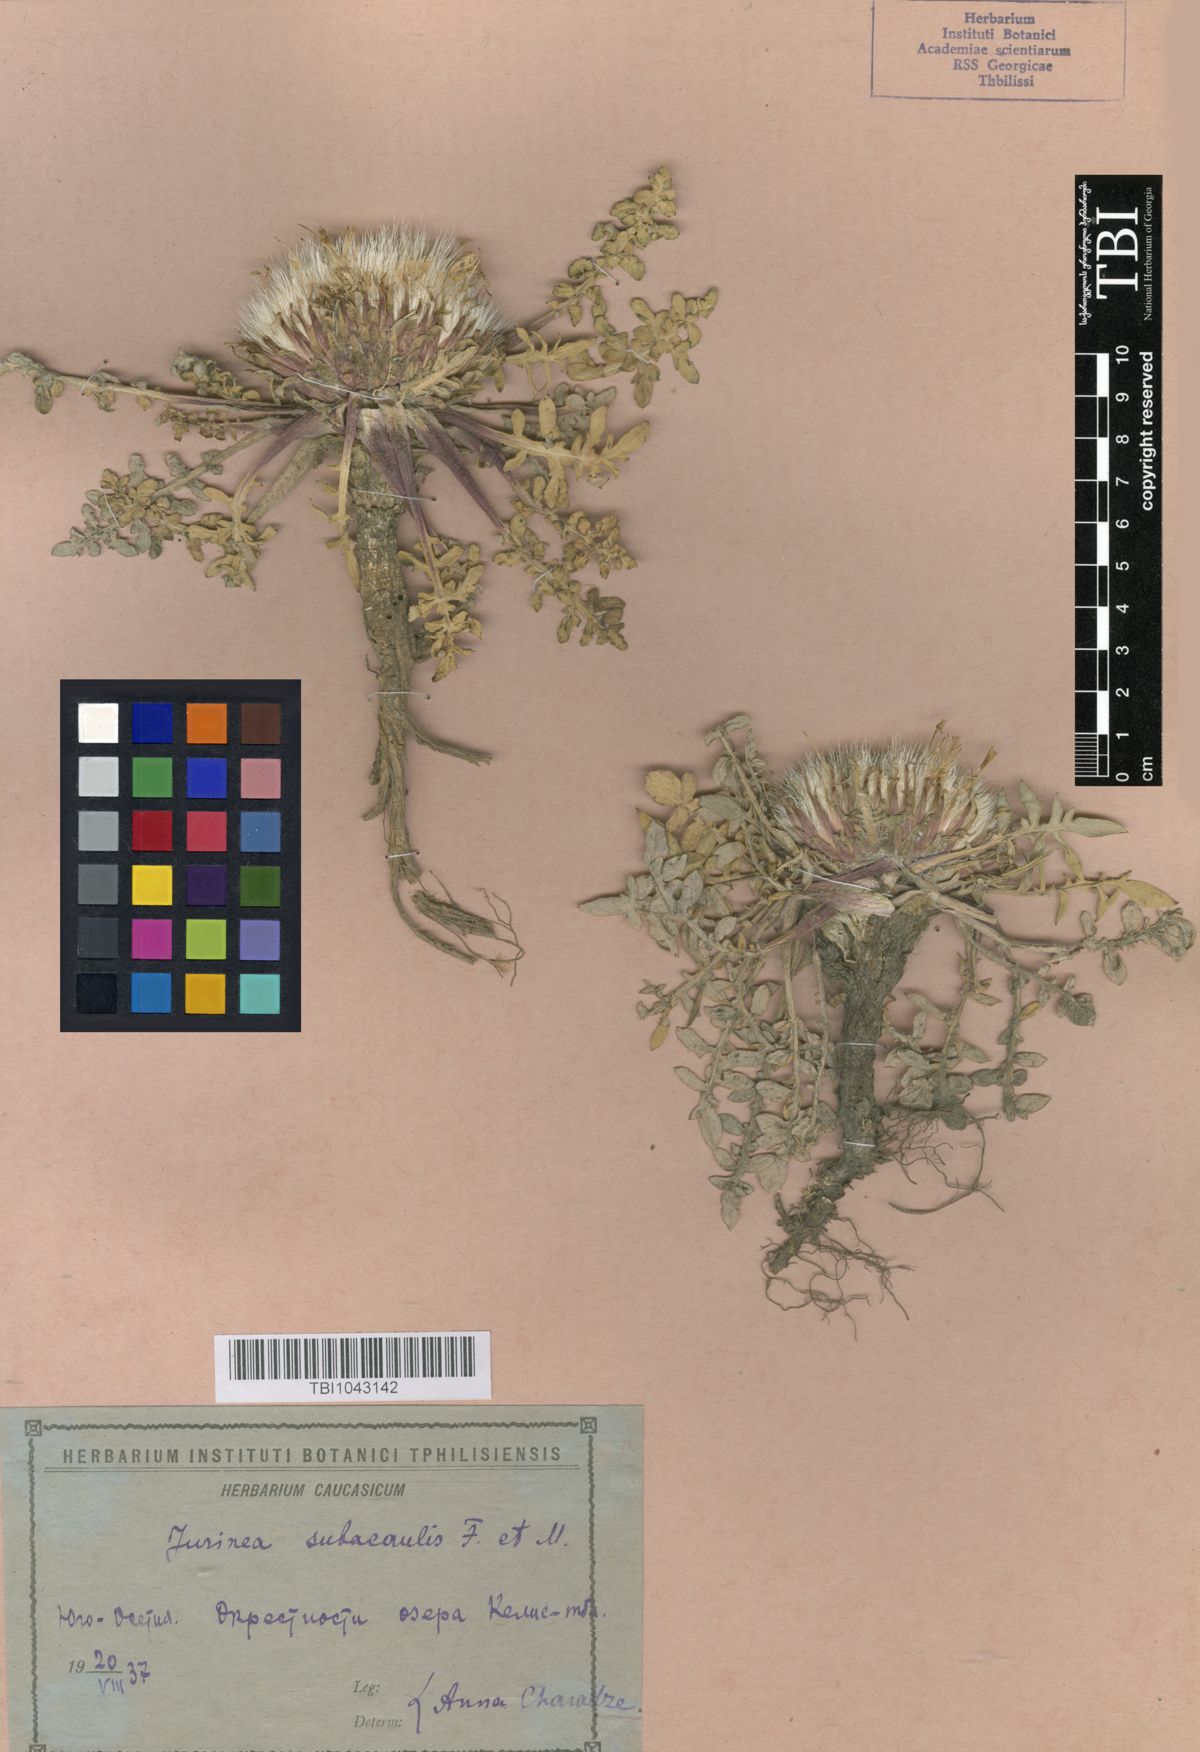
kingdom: Plantae
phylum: Tracheophyta
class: Magnoliopsida
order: Asterales
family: Asteraceae
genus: Jurinea
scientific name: Jurinea moschus
